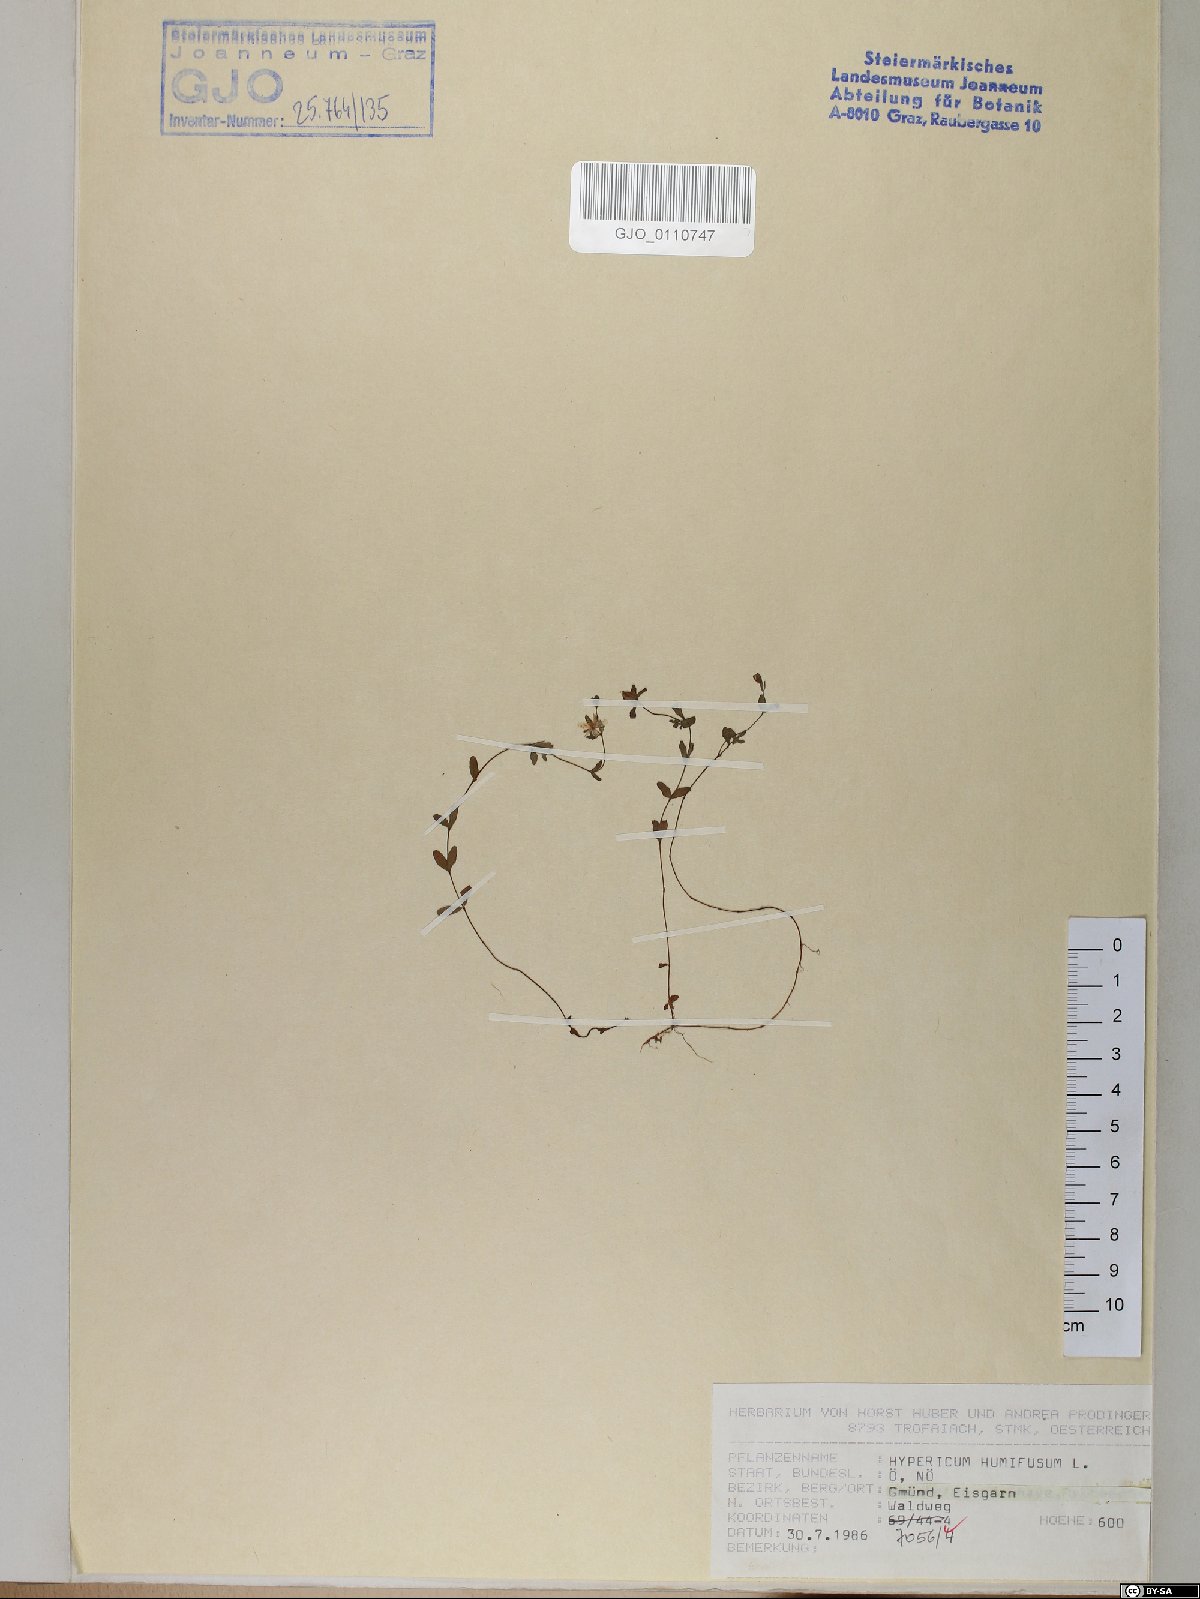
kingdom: Plantae
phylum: Tracheophyta
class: Magnoliopsida
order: Malpighiales
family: Hypericaceae
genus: Hypericum
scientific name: Hypericum humifusum
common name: Trailing st. john's-wort
